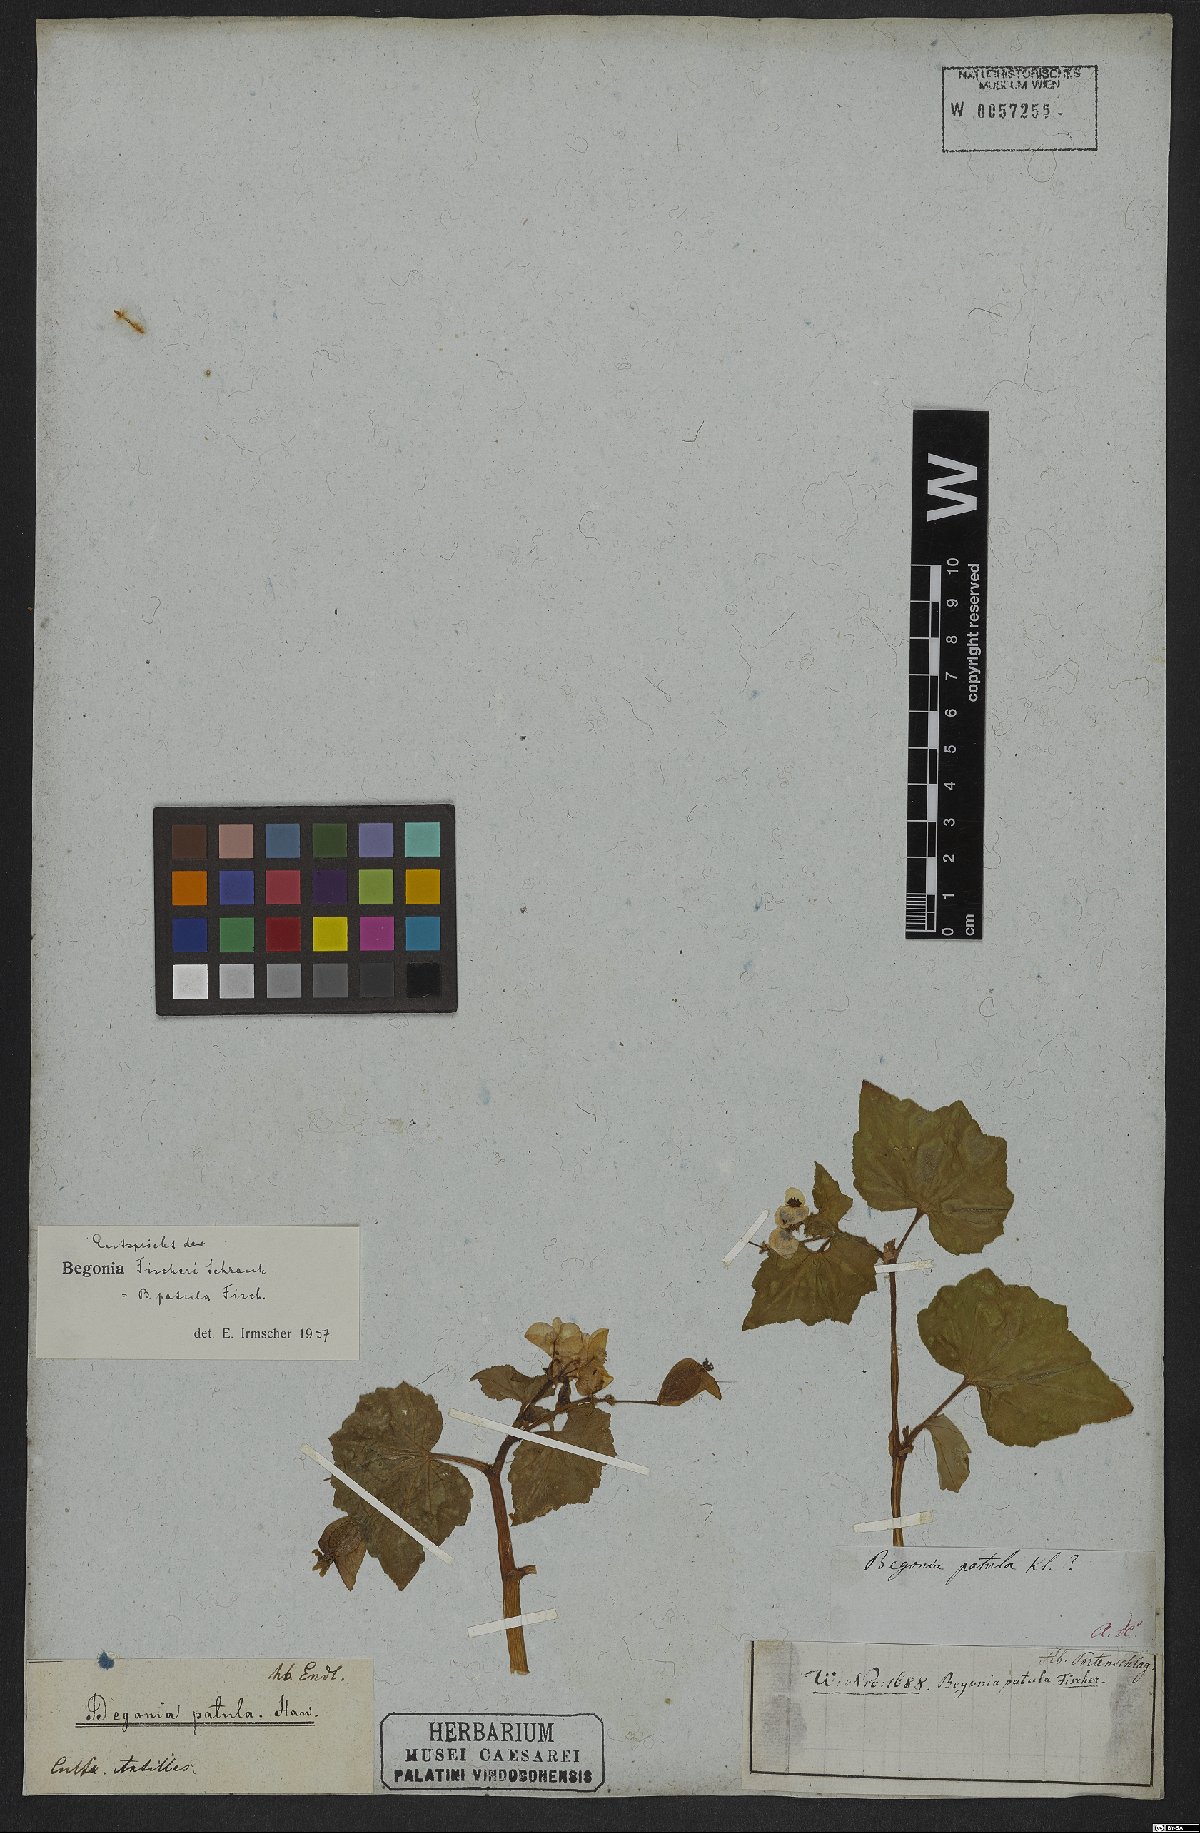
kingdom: Plantae
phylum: Tracheophyta
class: Magnoliopsida
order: Cucurbitales
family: Begoniaceae
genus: Begonia
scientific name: Begonia fischeri
